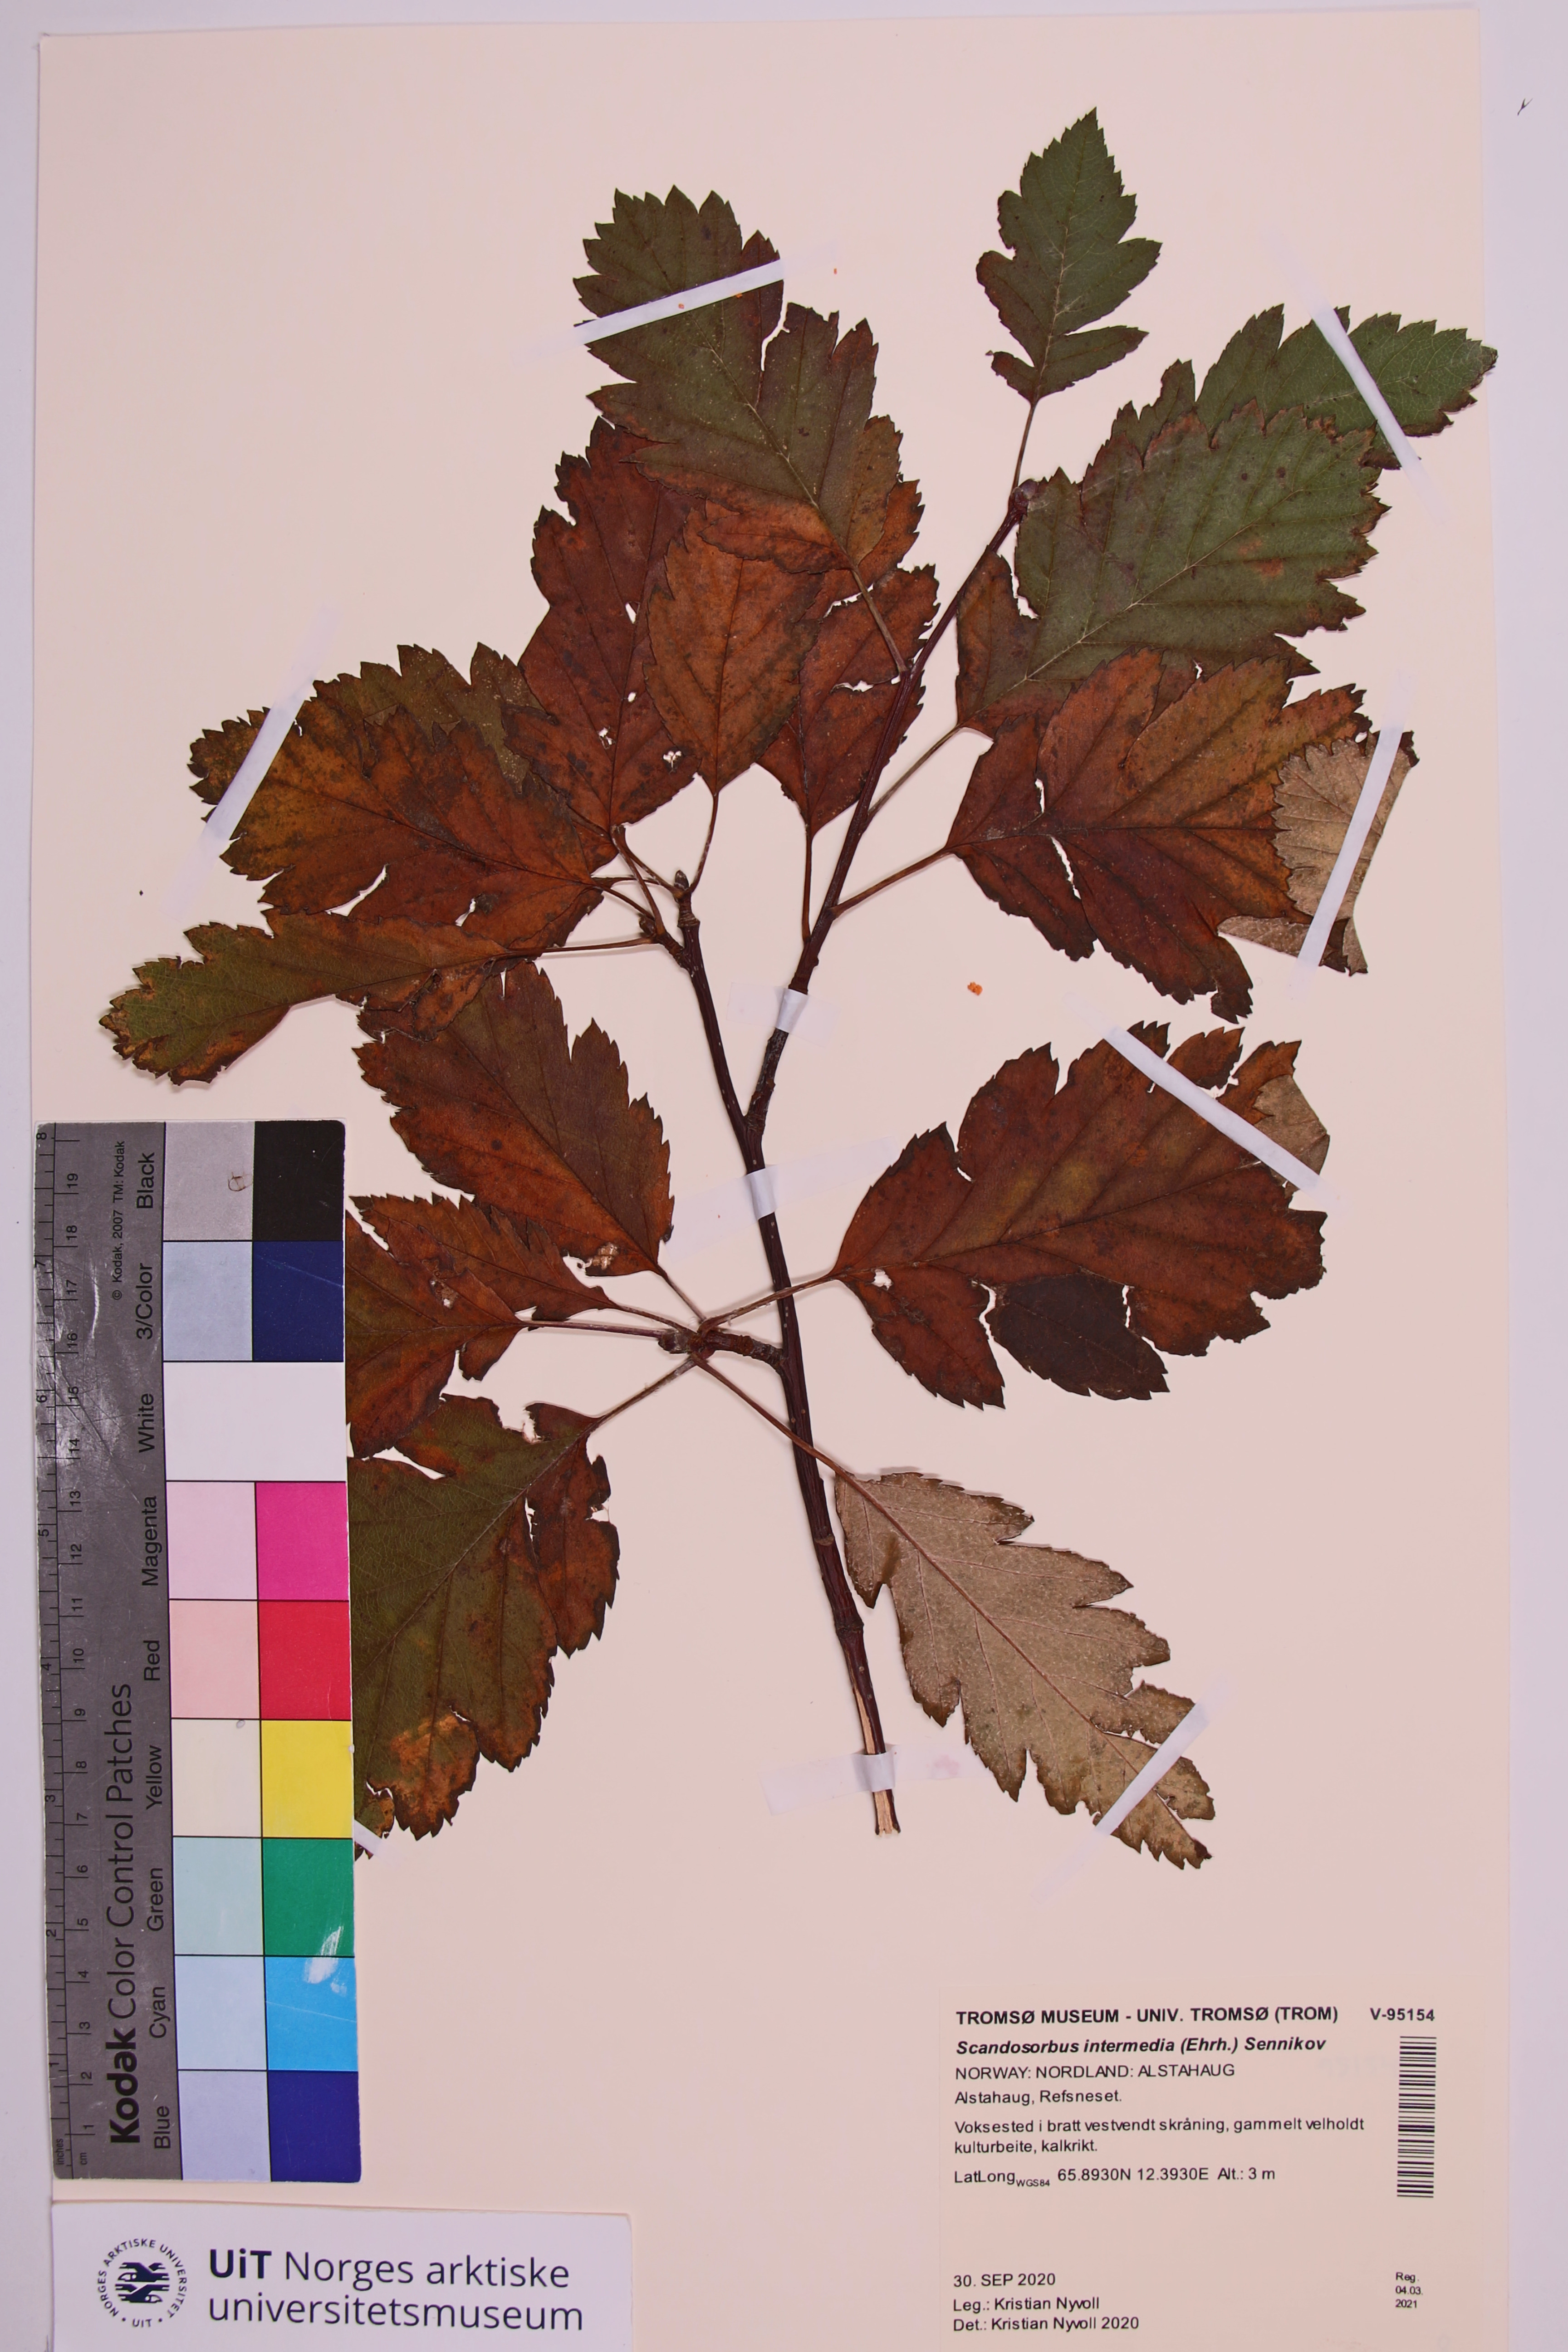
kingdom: Plantae
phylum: Tracheophyta
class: Magnoliopsida
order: Rosales
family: Rosaceae
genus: Scandosorbus
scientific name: Scandosorbus intermedia
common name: Swedish whitebeam
